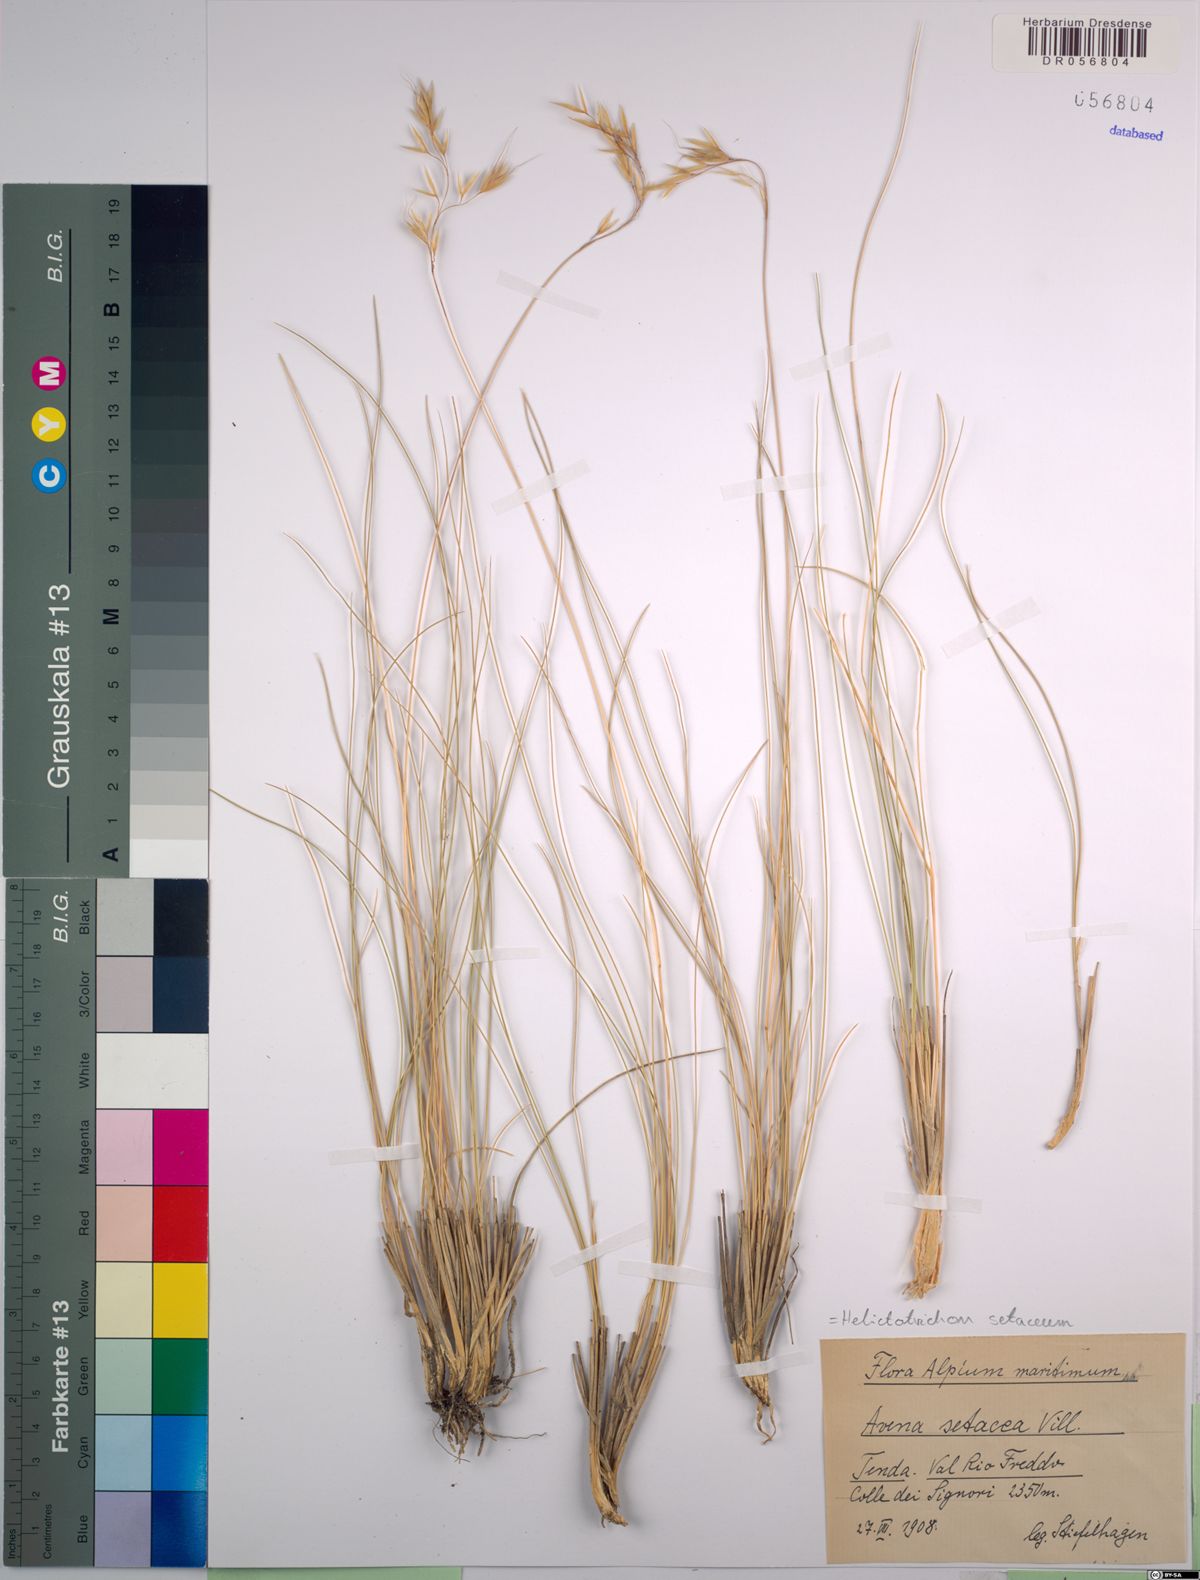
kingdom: Plantae
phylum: Tracheophyta
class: Liliopsida
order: Poales
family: Poaceae
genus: Helictotrichon
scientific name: Helictotrichon setaceum
